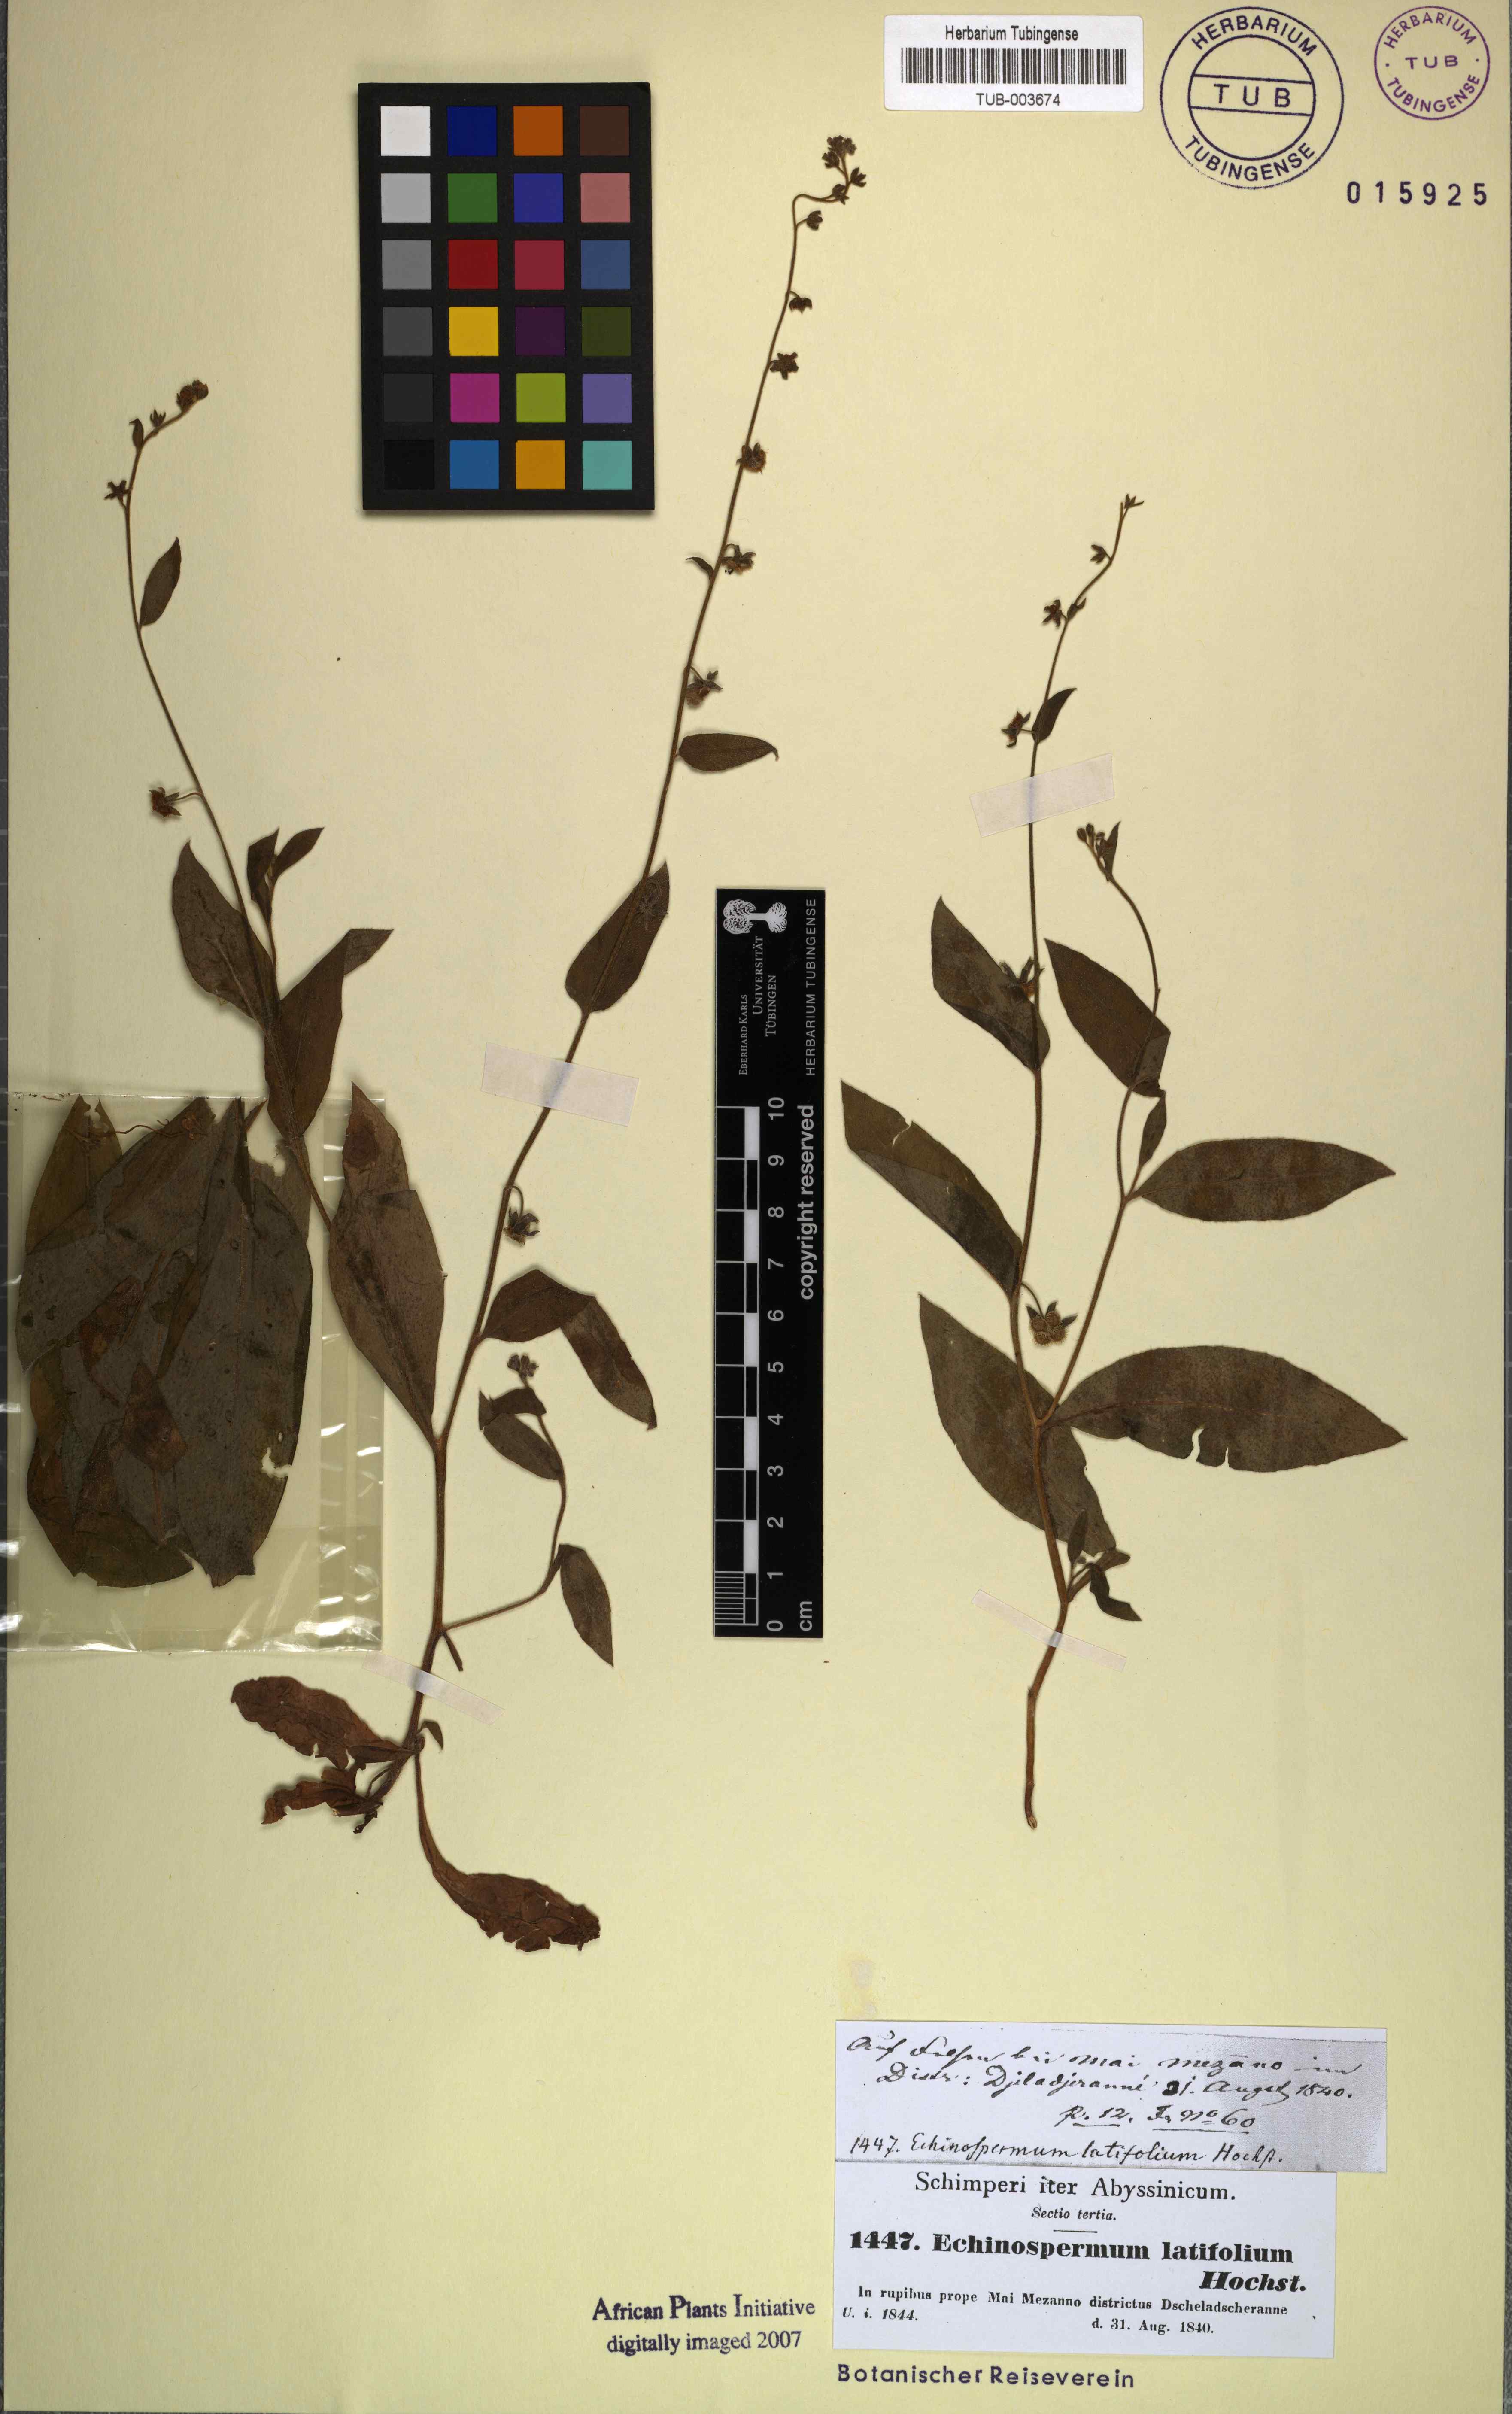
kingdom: Plantae
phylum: Tracheophyta
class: Magnoliopsida
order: Boraginales
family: Boraginaceae
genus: Cynoglossopsis
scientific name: Cynoglossopsis latifolia
